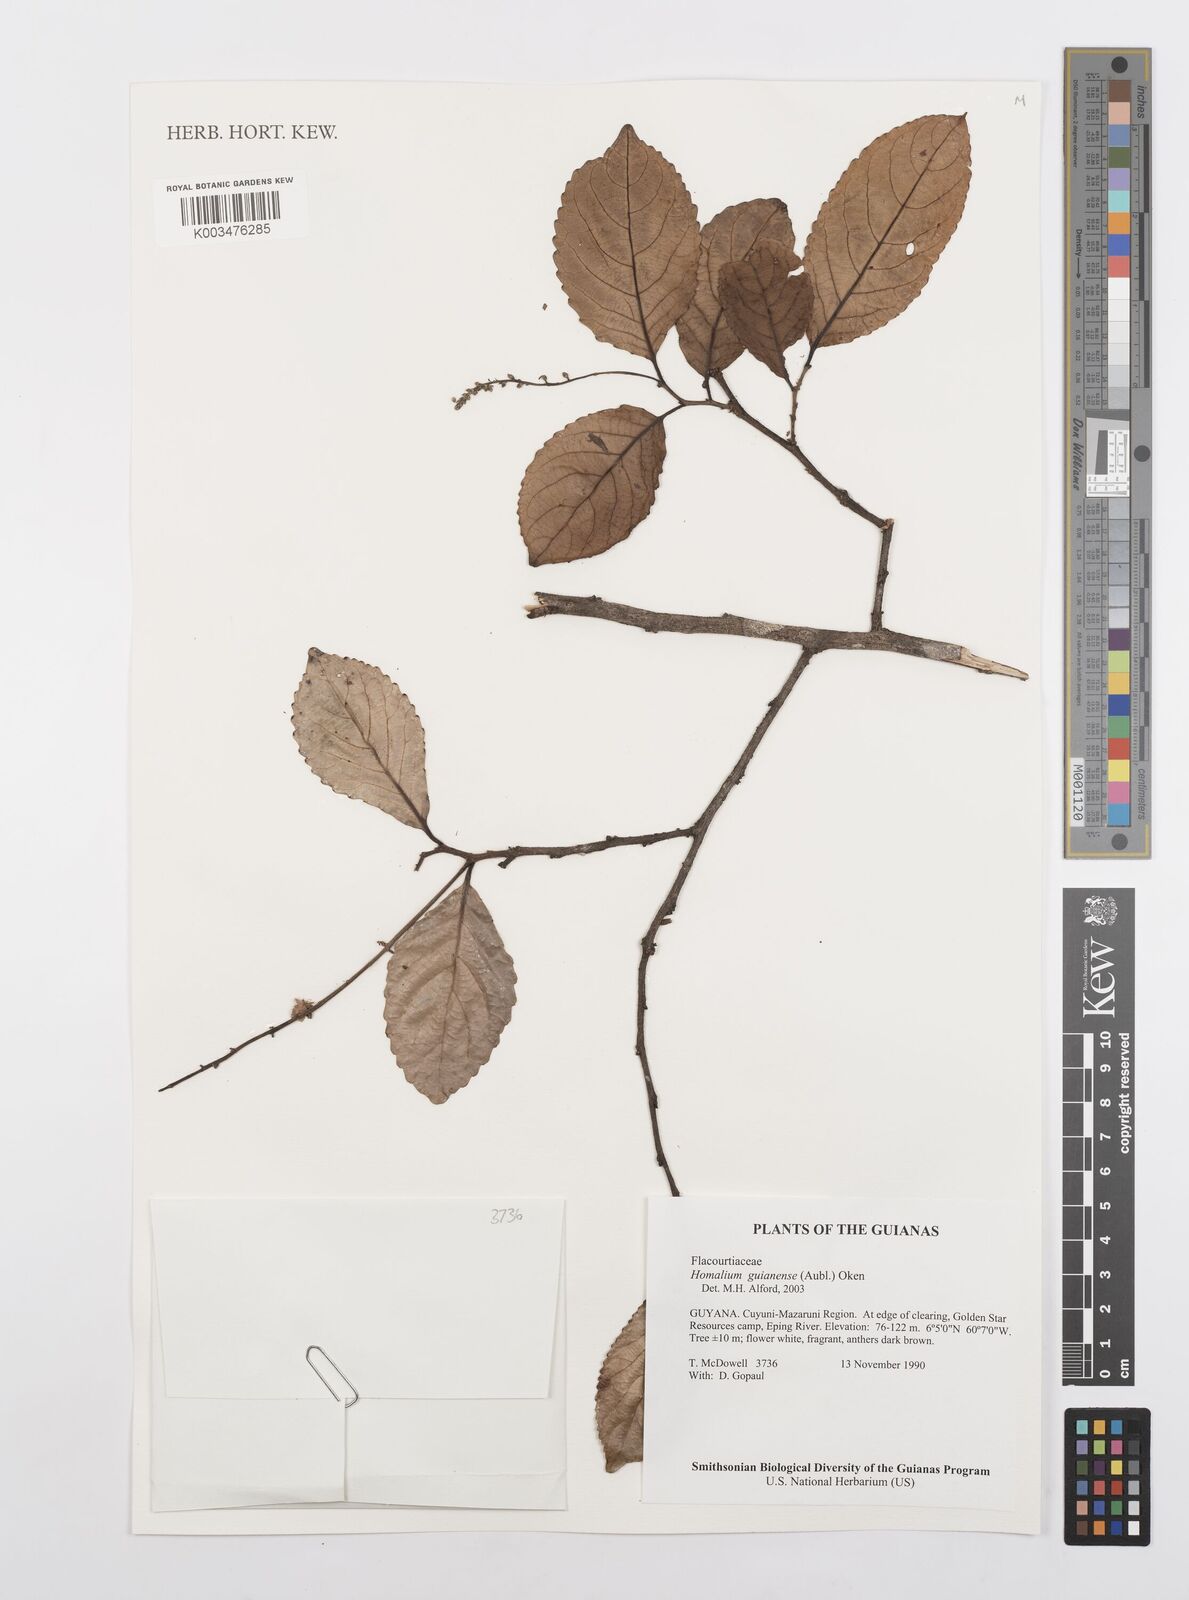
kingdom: Plantae
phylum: Tracheophyta
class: Magnoliopsida
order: Malpighiales
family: Salicaceae
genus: Homalium
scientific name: Homalium guianense
